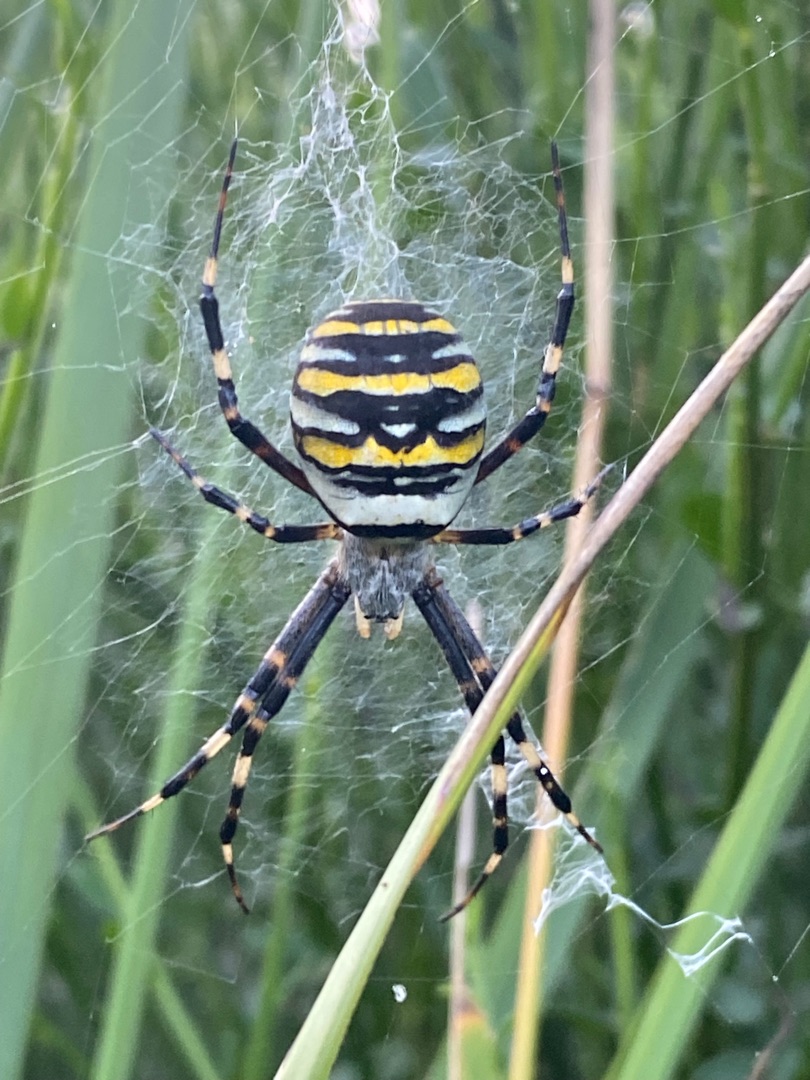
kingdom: Animalia
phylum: Arthropoda
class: Arachnida
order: Araneae
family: Araneidae
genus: Argiope
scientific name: Argiope bruennichi
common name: Hvepseedderkop
